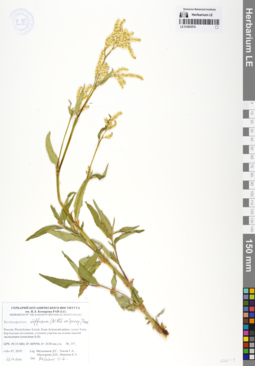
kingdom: Plantae
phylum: Tracheophyta
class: Magnoliopsida
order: Caryophyllales
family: Polygonaceae
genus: Koenigia
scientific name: Koenigia alpina
